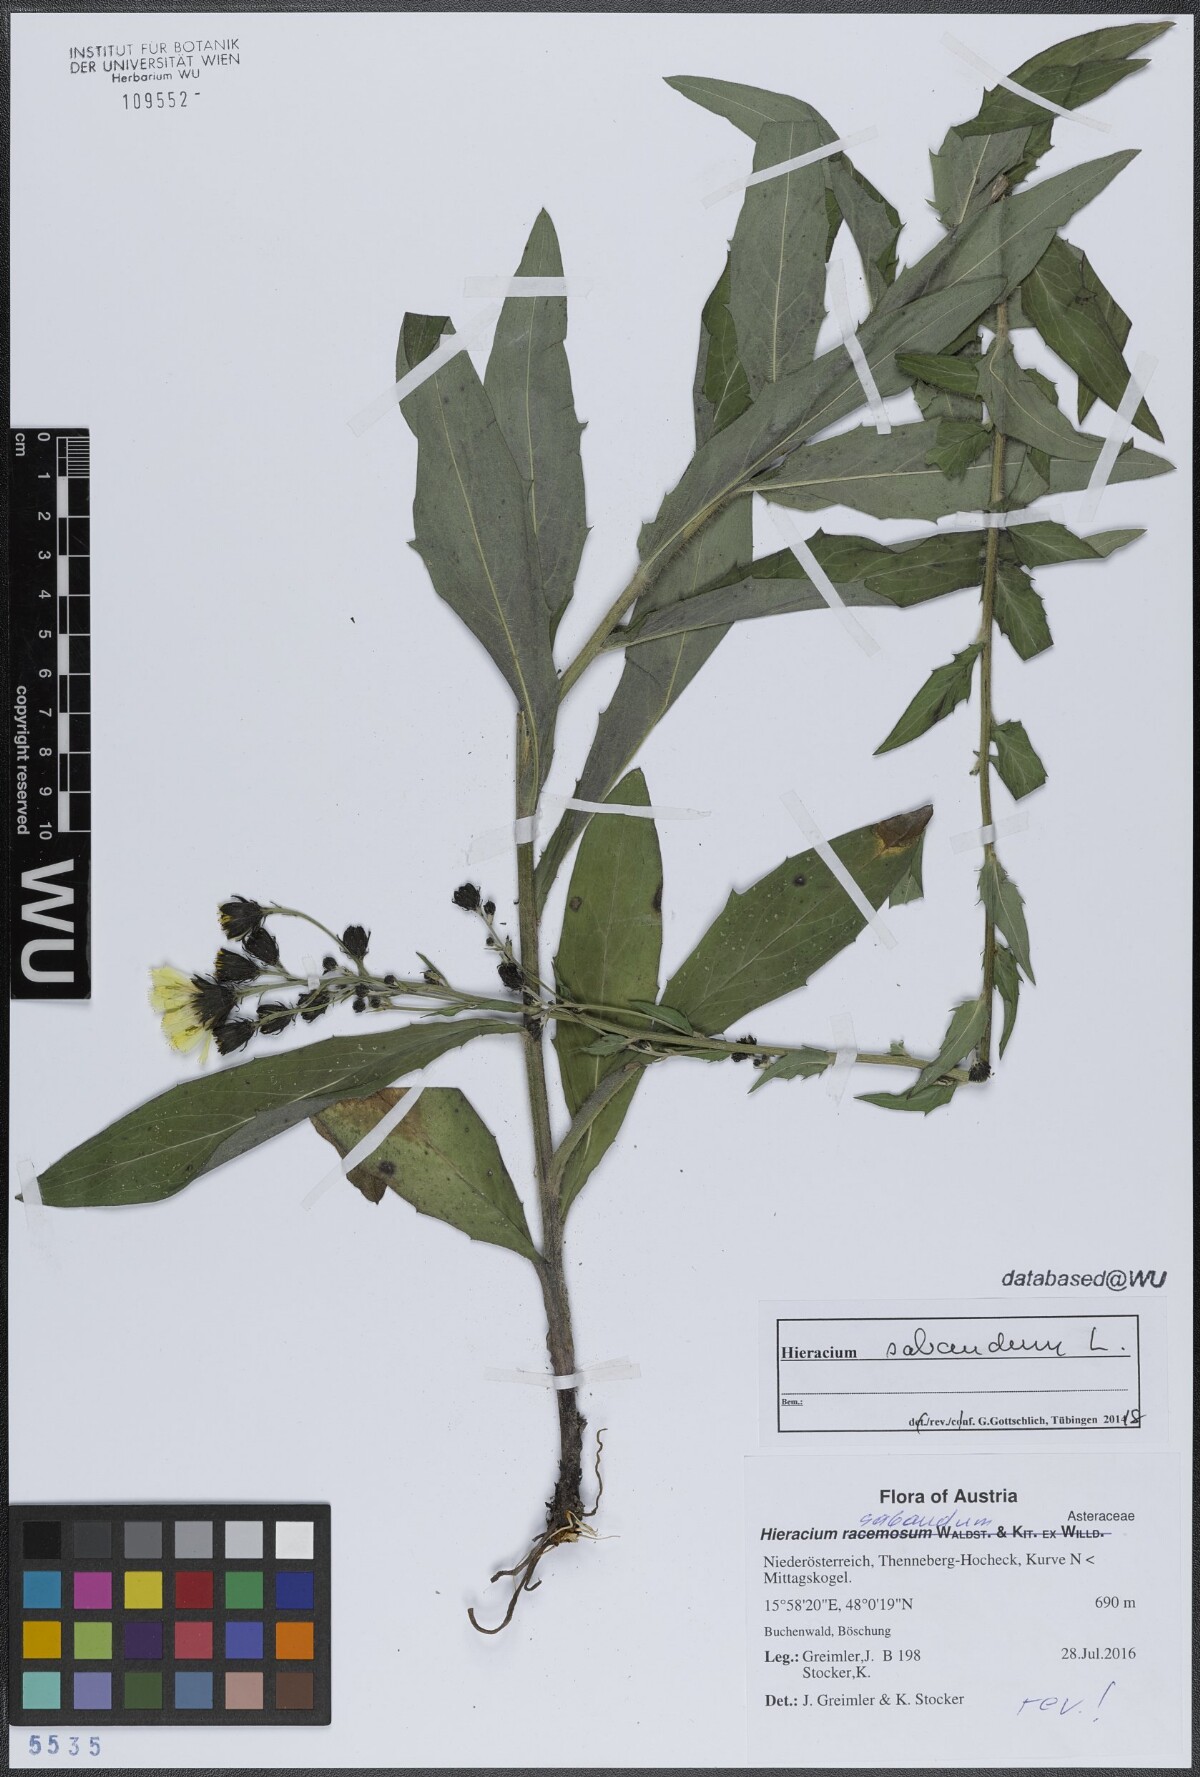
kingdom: Plantae
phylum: Tracheophyta
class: Magnoliopsida
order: Asterales
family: Asteraceae
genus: Hieracium
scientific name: Hieracium sabaudum
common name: New england hawkweed
